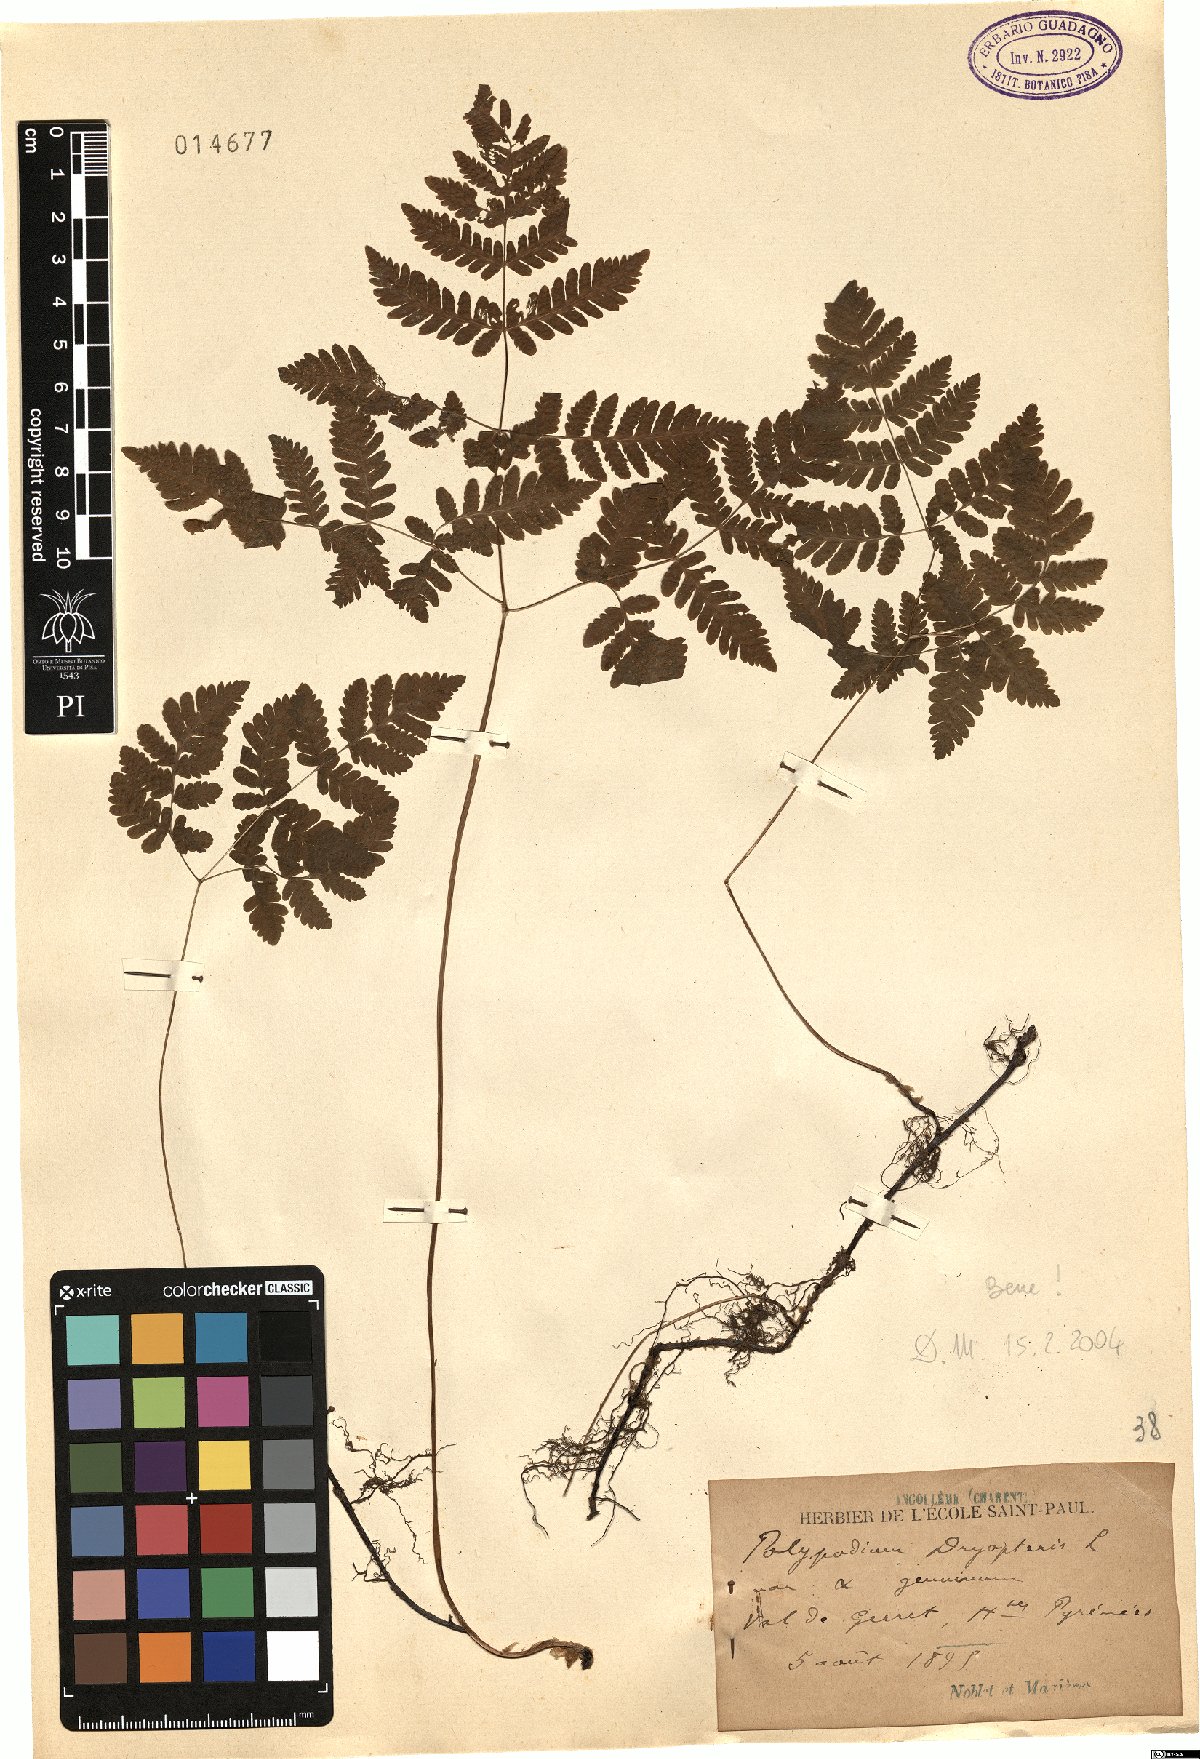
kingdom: Plantae
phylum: Tracheophyta
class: Polypodiopsida
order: Polypodiales
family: Cystopteridaceae
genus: Gymnocarpium
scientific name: Gymnocarpium dryopteris
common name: Oak fern
